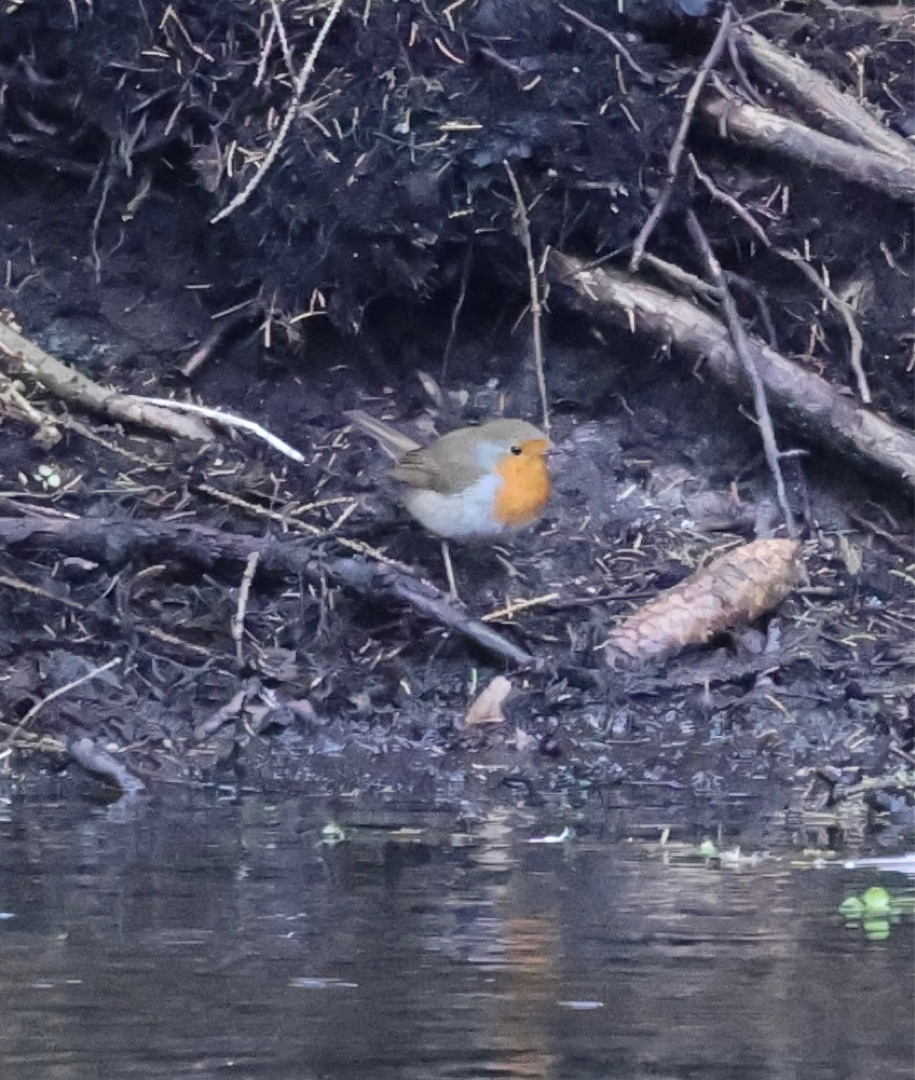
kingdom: Animalia
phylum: Chordata
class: Aves
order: Passeriformes
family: Muscicapidae
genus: Erithacus
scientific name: Erithacus rubecula
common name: Rødhals/rødkælk
